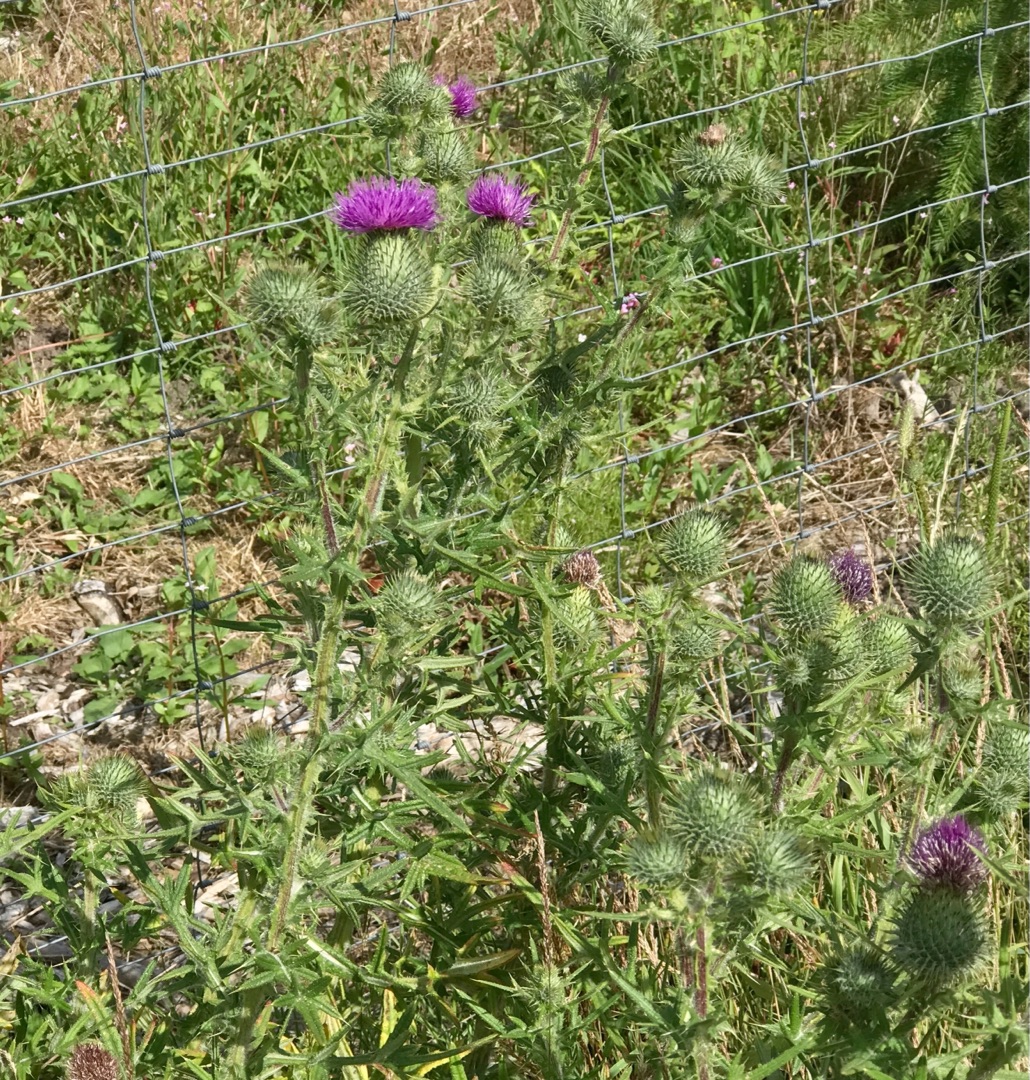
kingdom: Plantae
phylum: Tracheophyta
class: Magnoliopsida
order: Asterales
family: Asteraceae
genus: Cirsium
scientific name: Cirsium vulgare
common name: Horse-tidsel
